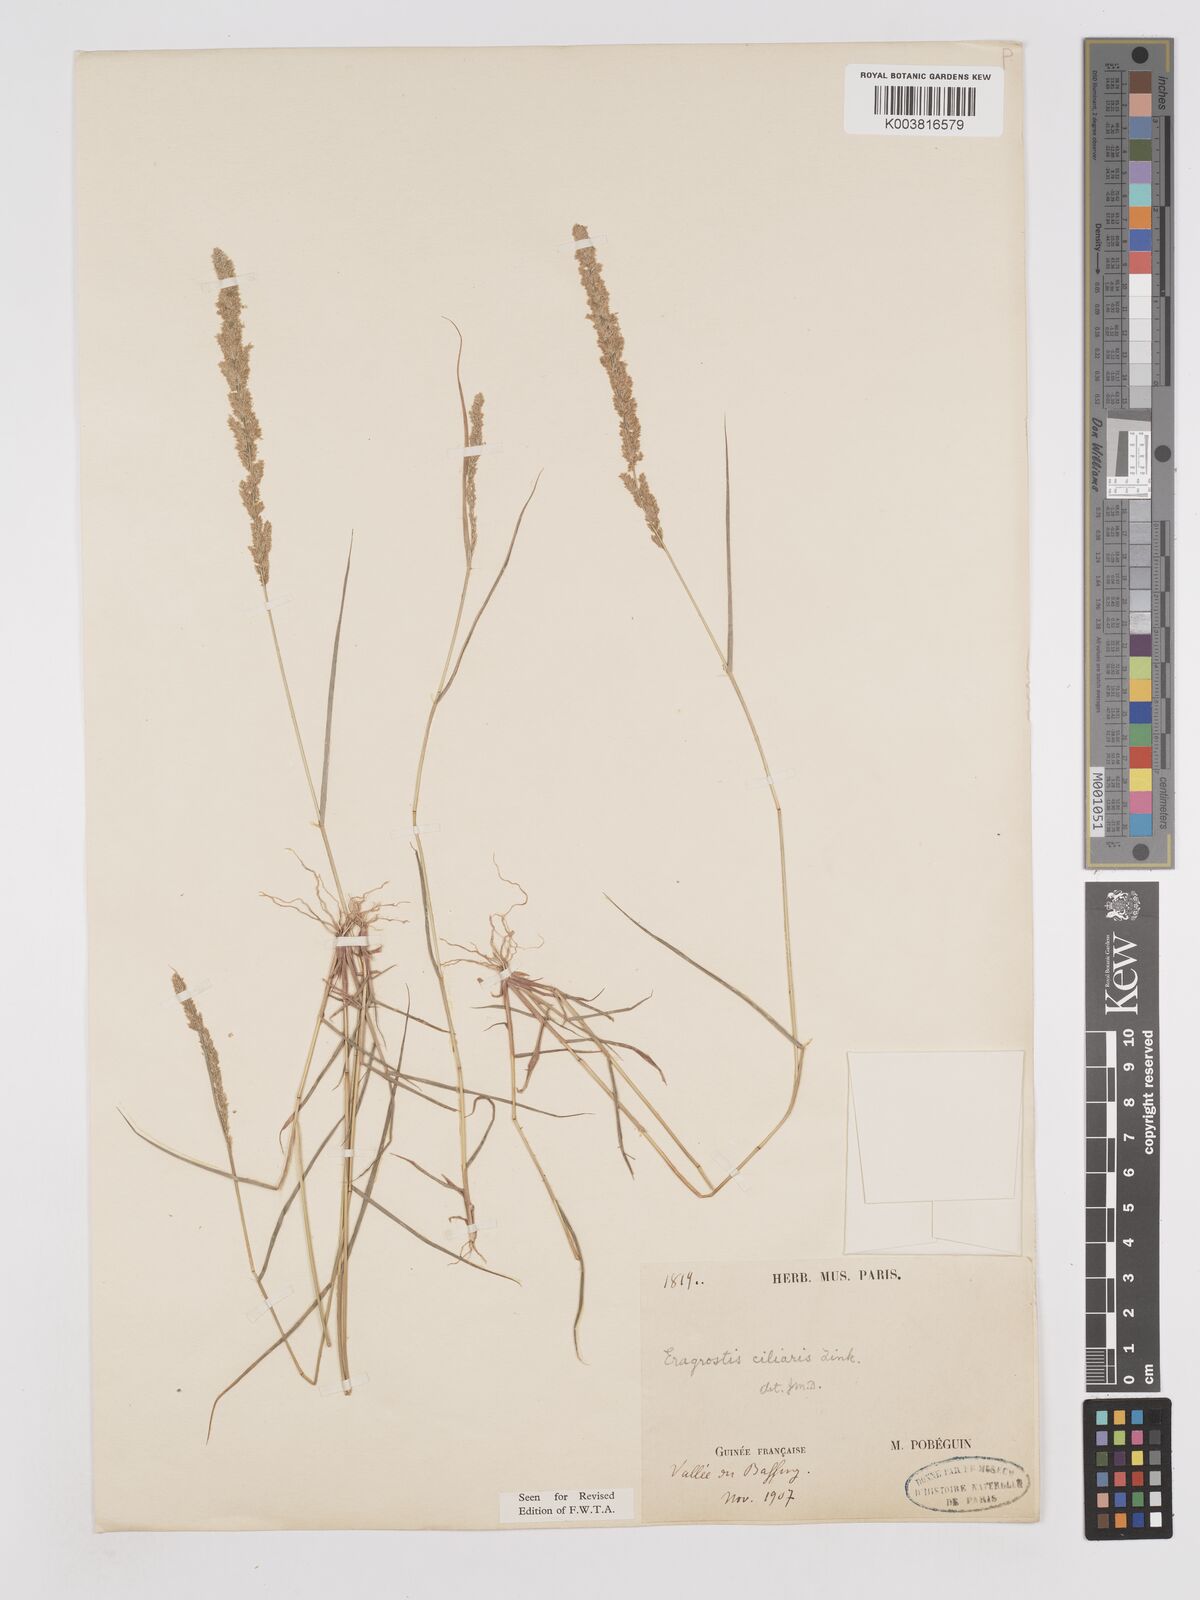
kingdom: Plantae
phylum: Tracheophyta
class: Liliopsida
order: Poales
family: Poaceae
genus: Eragrostis
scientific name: Eragrostis ciliaris
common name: Gophertail lovegrass
